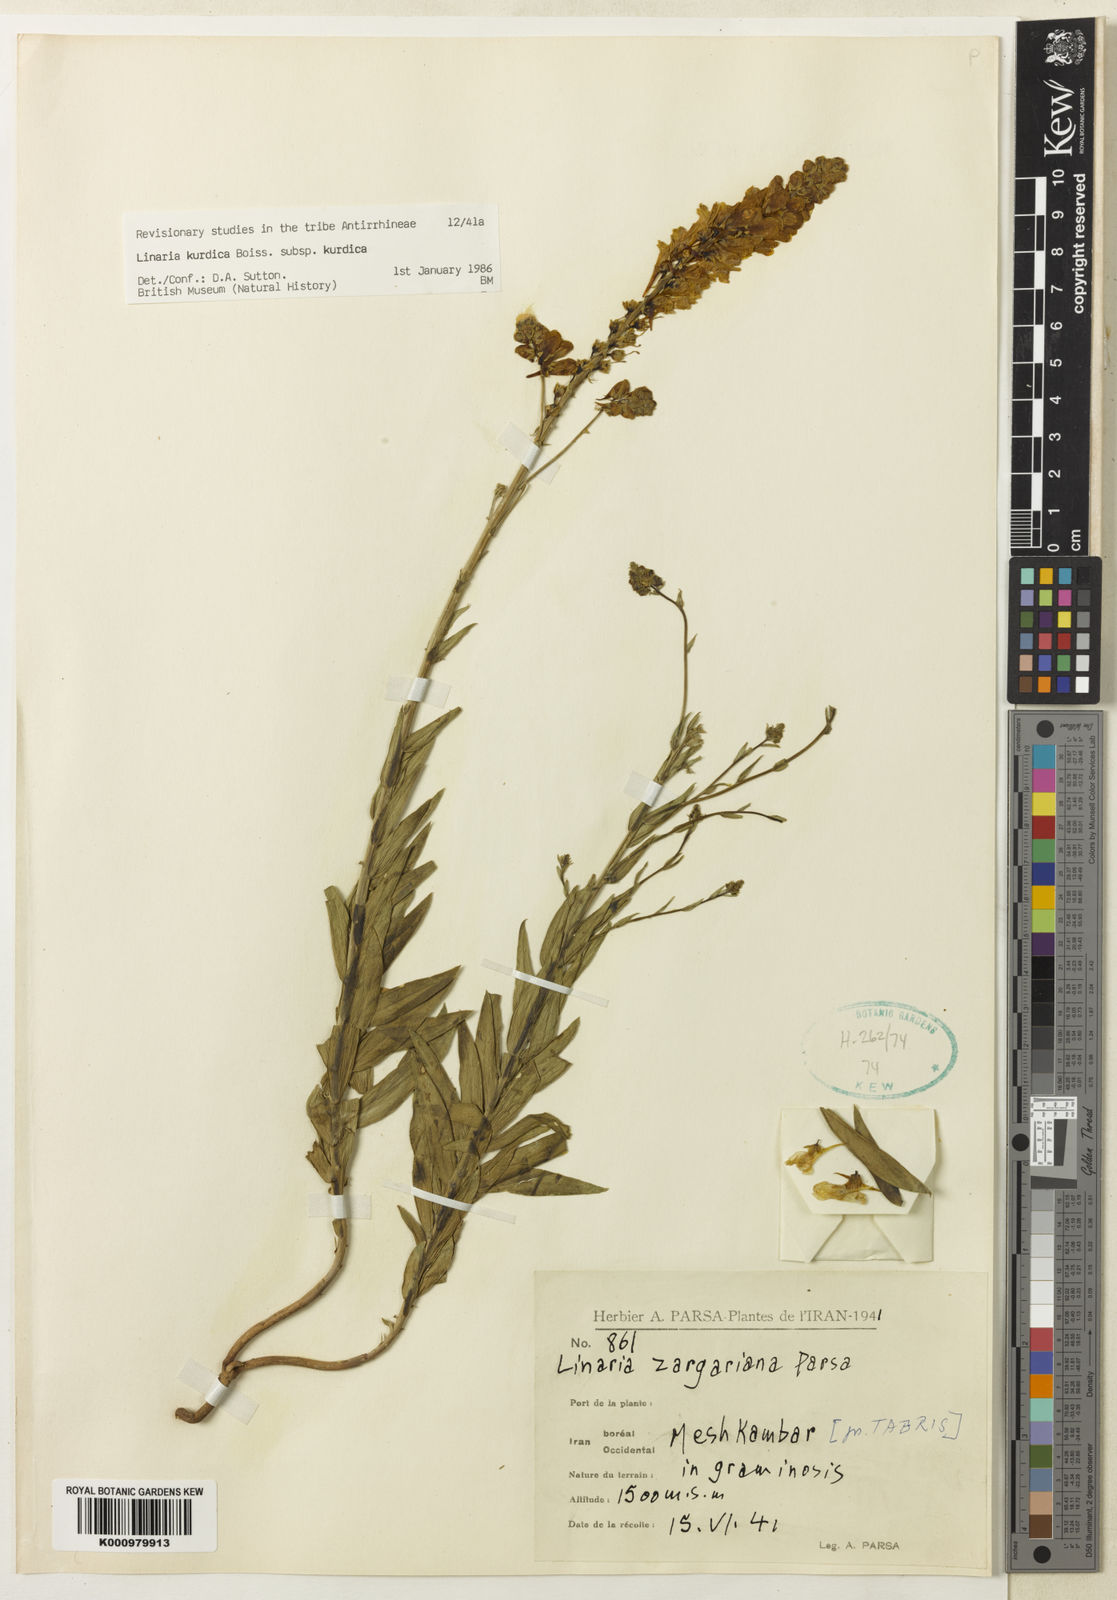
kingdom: Plantae
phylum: Tracheophyta
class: Magnoliopsida
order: Lamiales
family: Plantaginaceae
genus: Linaria
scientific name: Linaria kurdica
